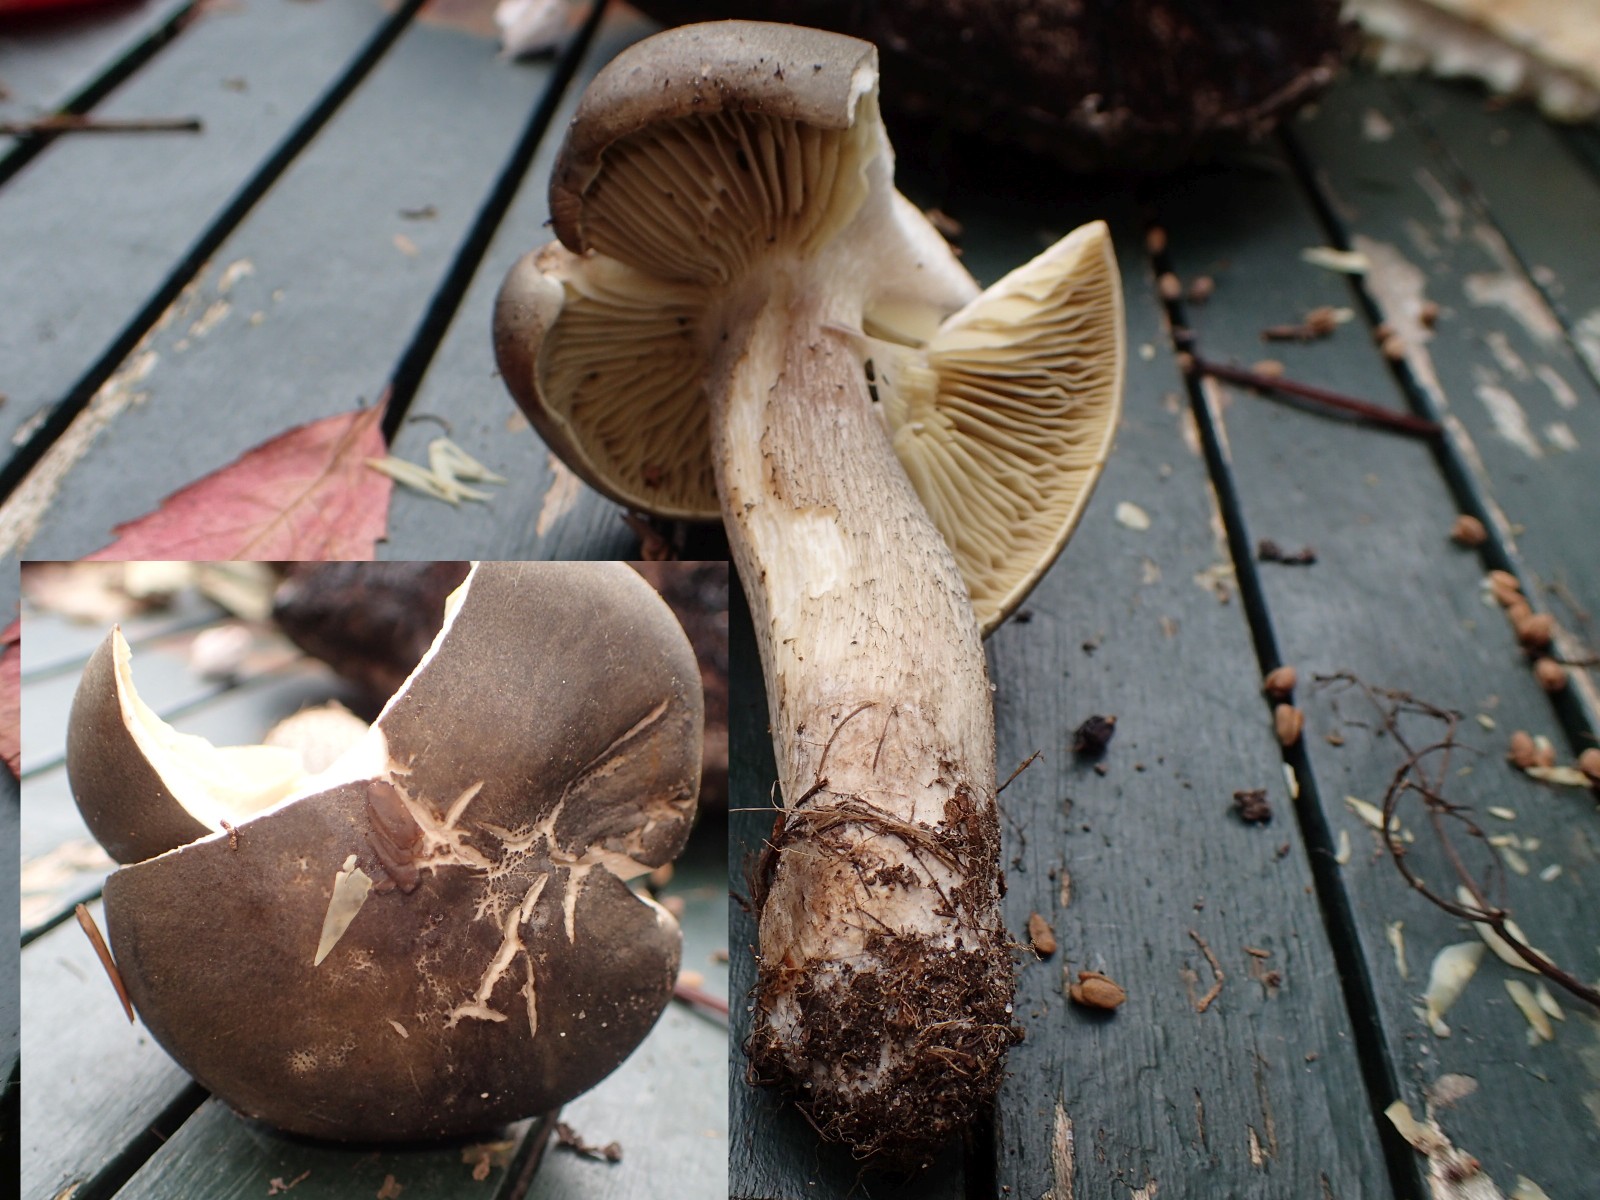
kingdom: Fungi
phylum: Basidiomycota
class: Agaricomycetes
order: Agaricales
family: Tricholomataceae
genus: Tricholoma
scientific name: Tricholoma saponaceum
